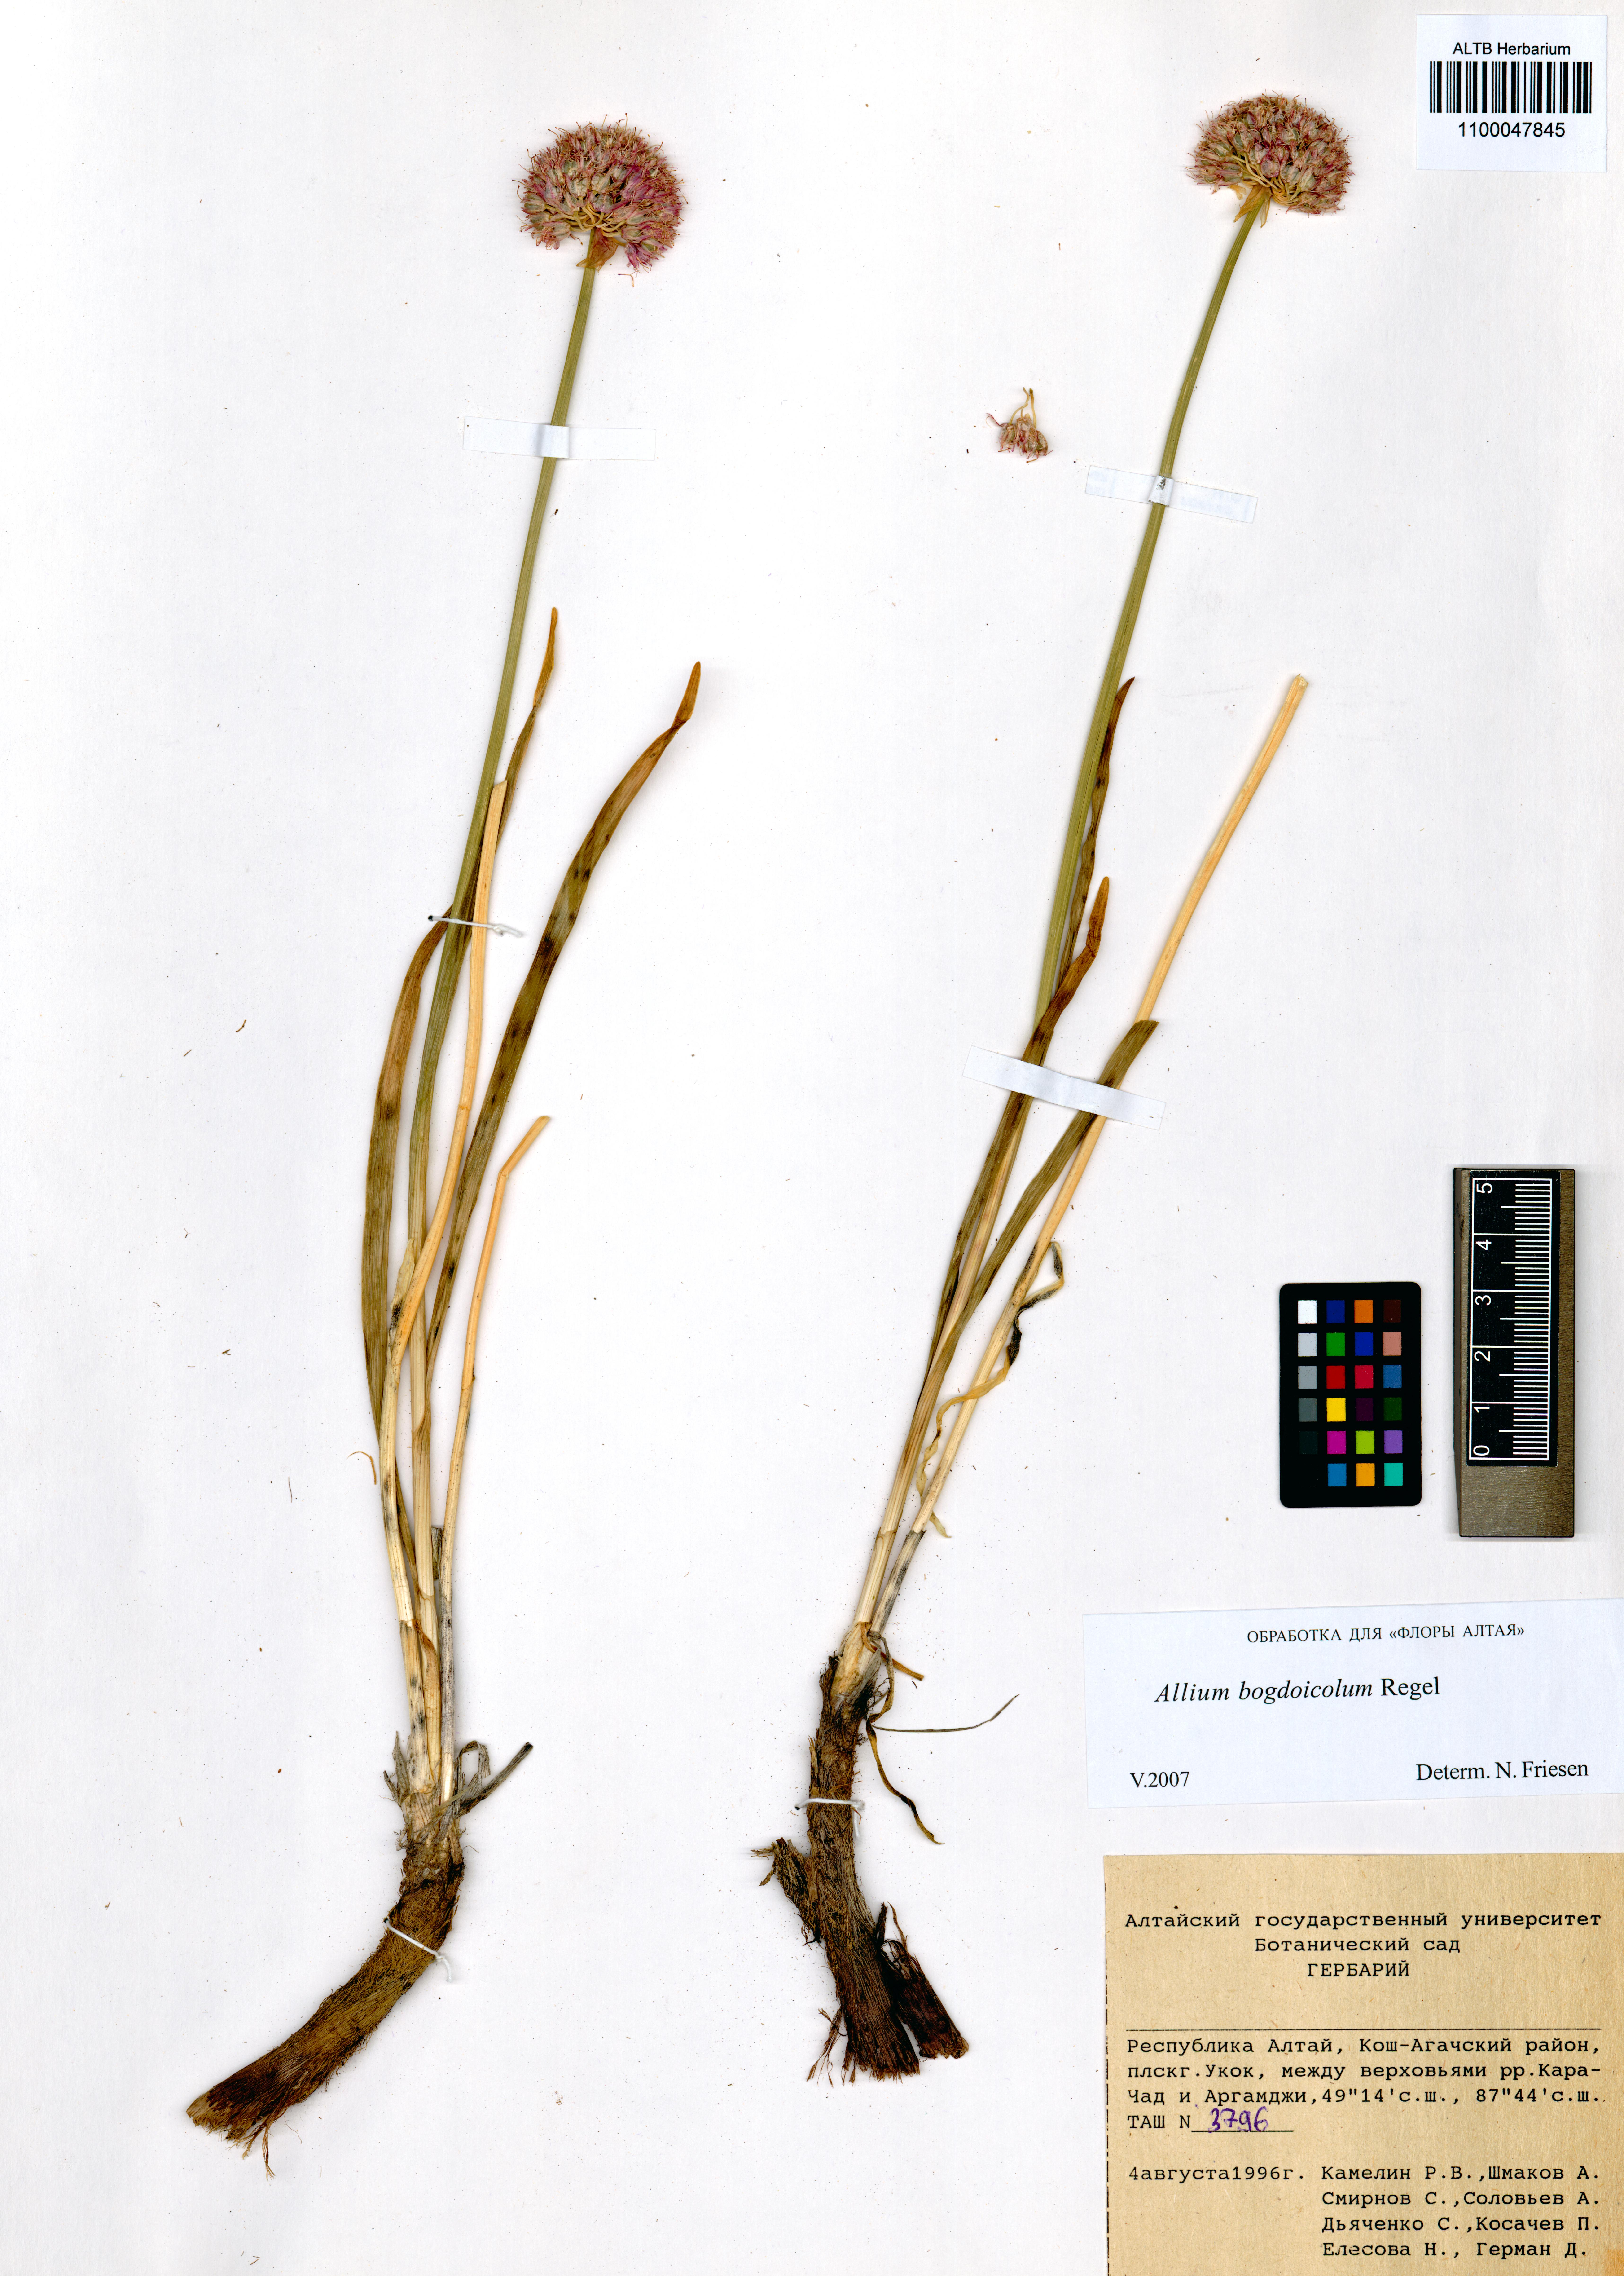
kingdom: Plantae
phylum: Tracheophyta
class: Liliopsida
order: Asparagales
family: Amaryllidaceae
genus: Allium
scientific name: Allium schrenkii
